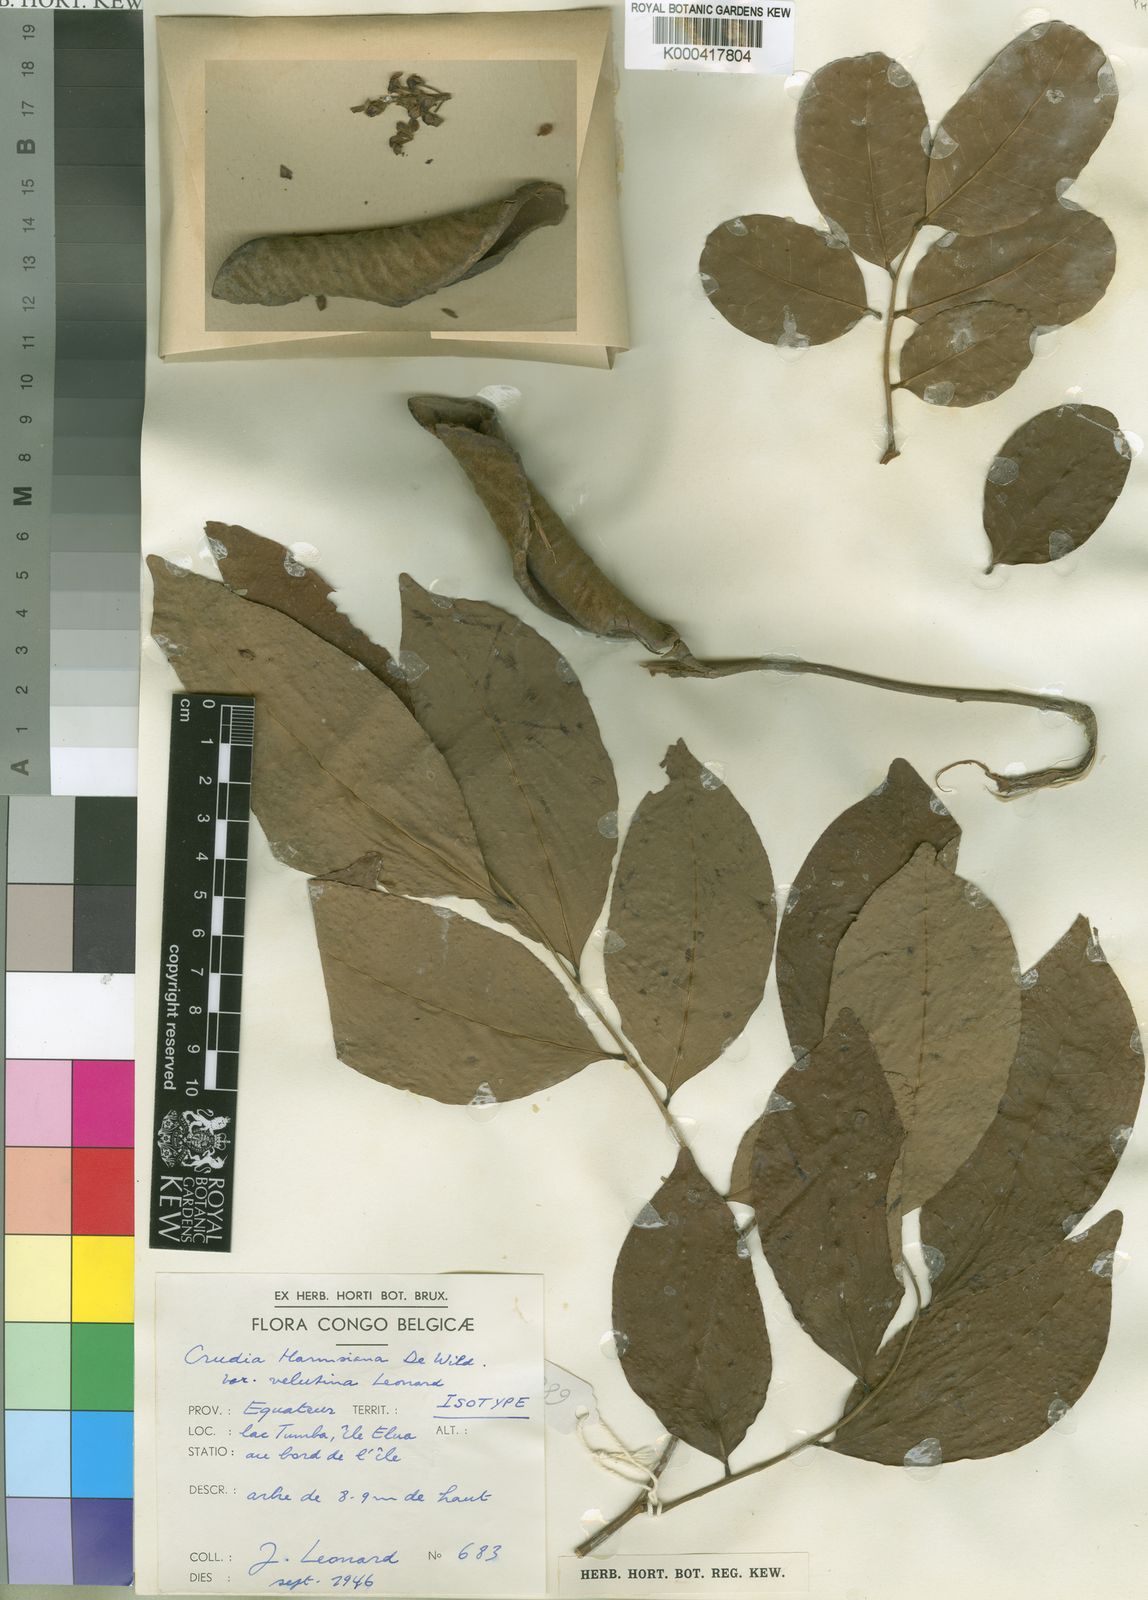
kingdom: Plantae
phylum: Tracheophyta
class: Magnoliopsida
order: Fabales
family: Fabaceae
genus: Crudia
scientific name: Crudia harmsiana
